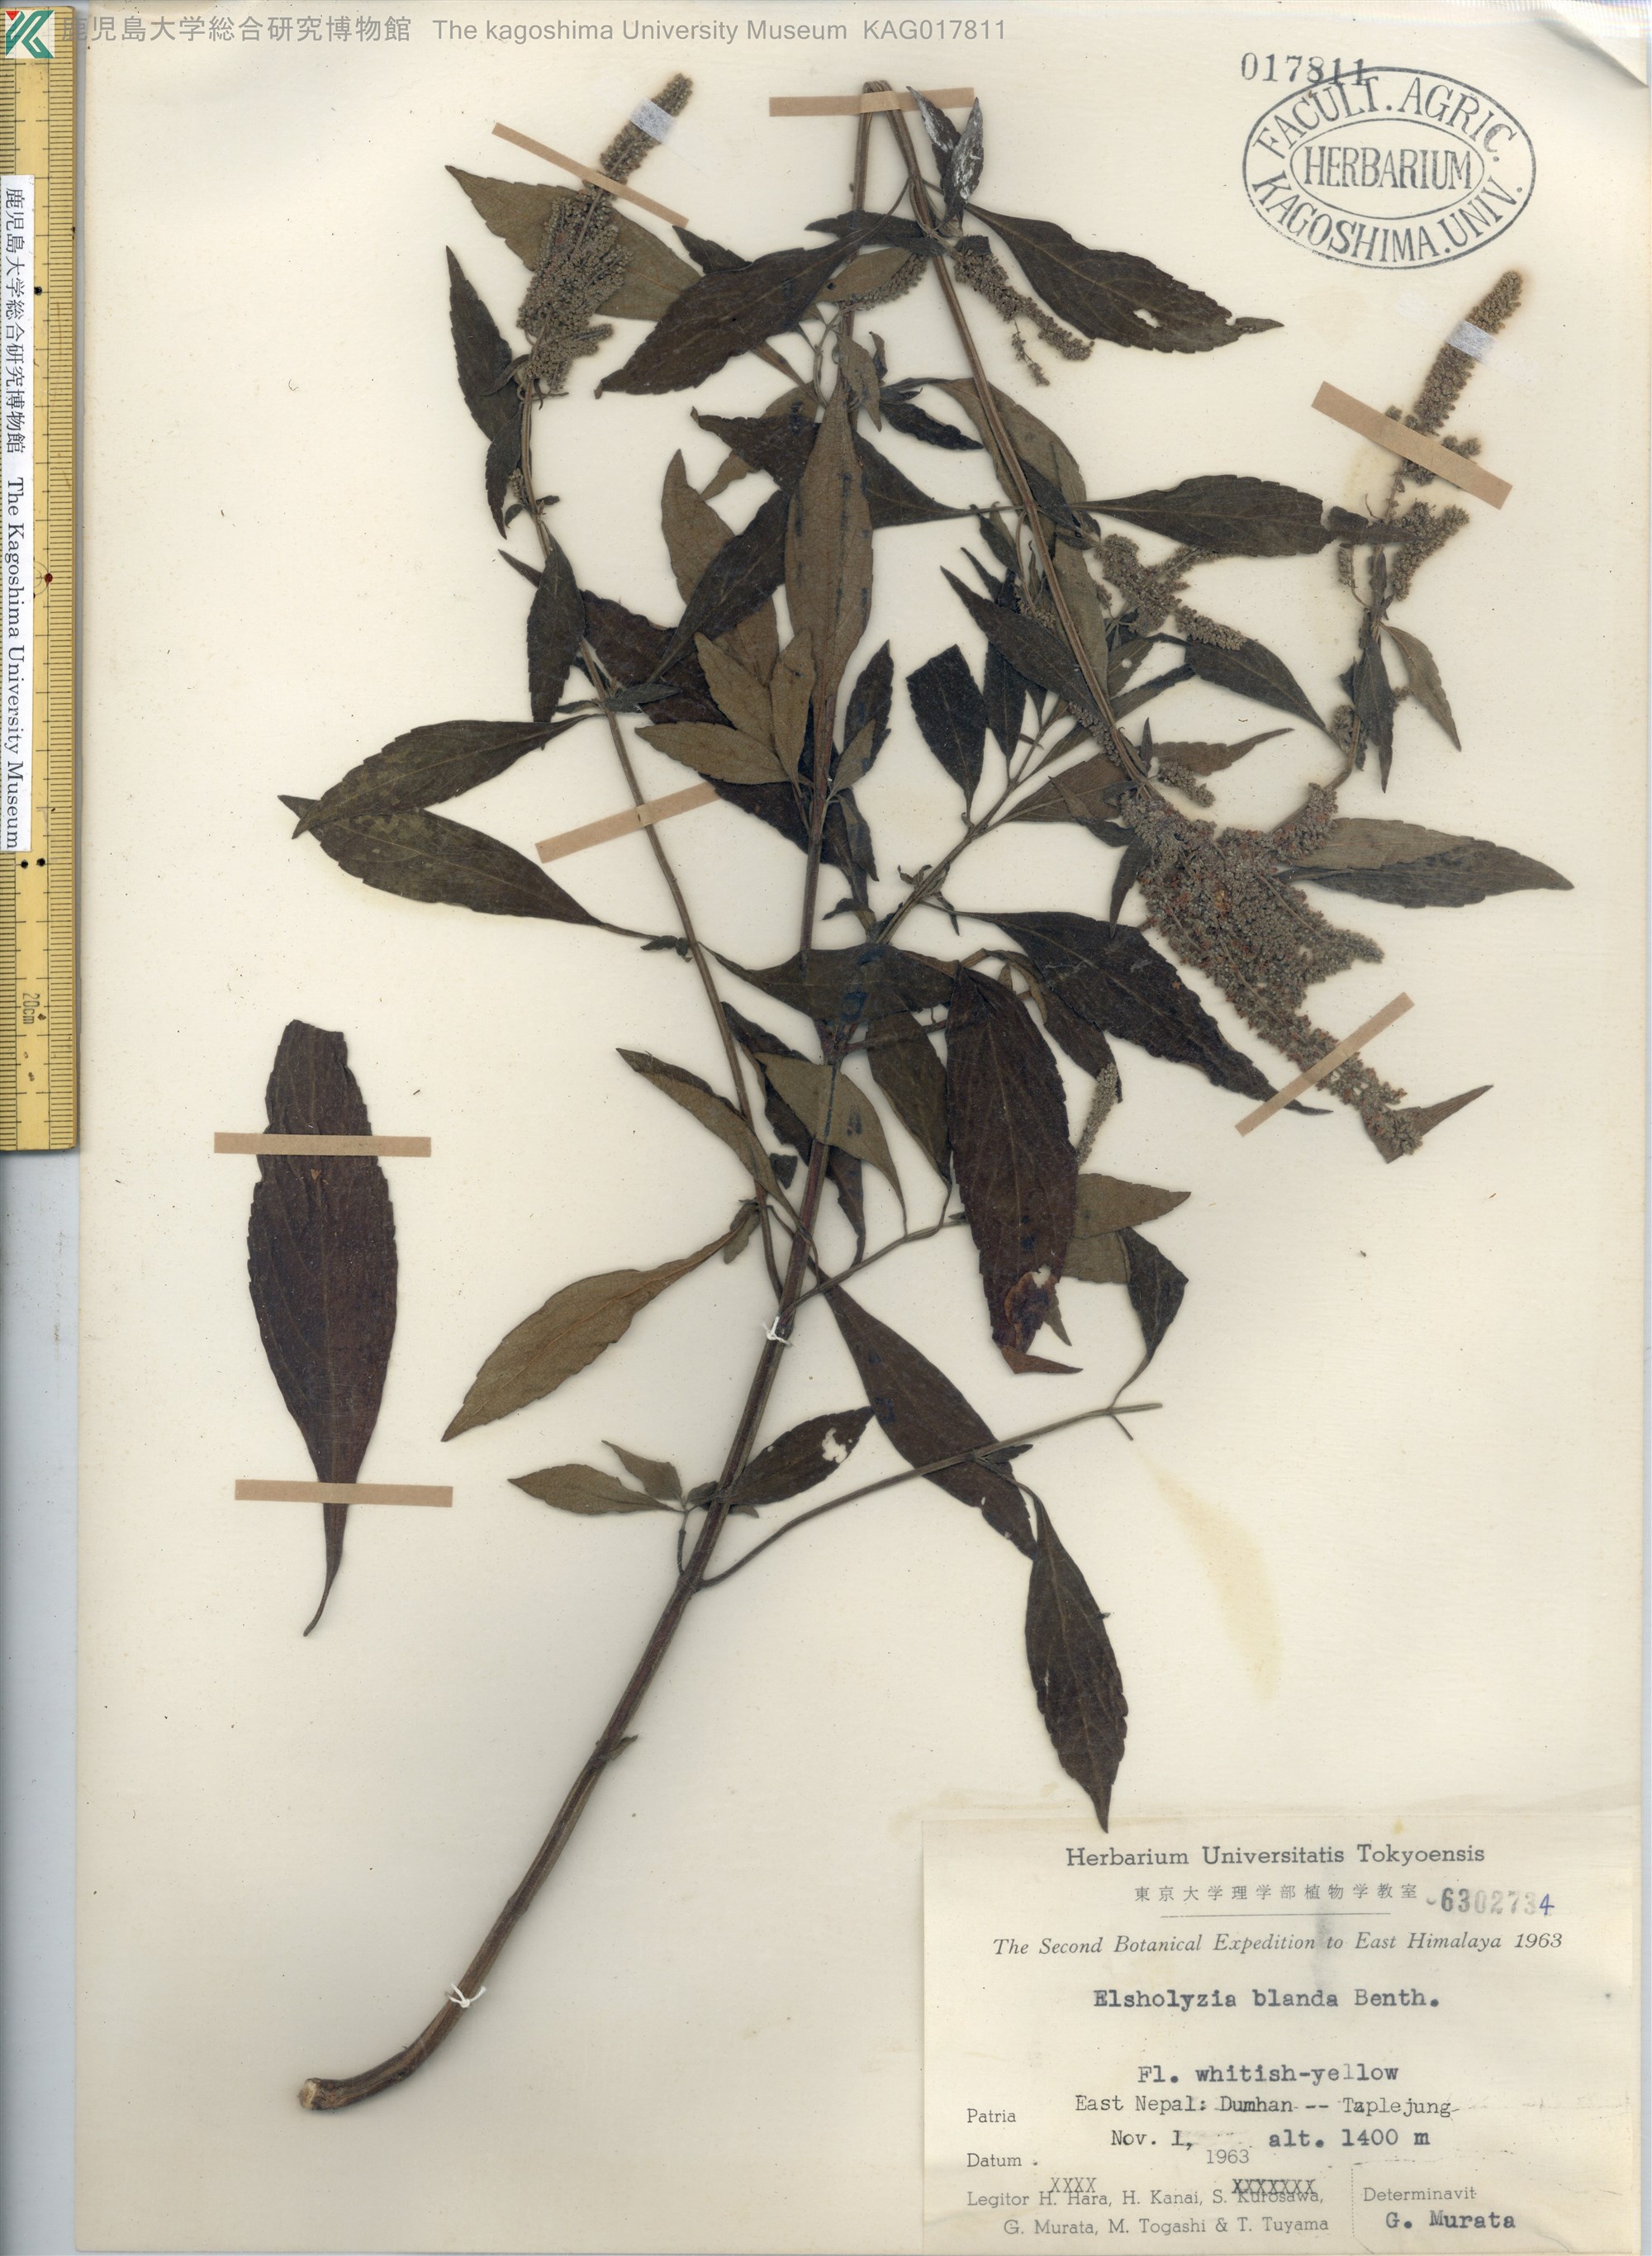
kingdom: Plantae
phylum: Tracheophyta
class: Magnoliopsida
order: Lamiales
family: Lamiaceae
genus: Elsholtzia
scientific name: Elsholtzia blanda
